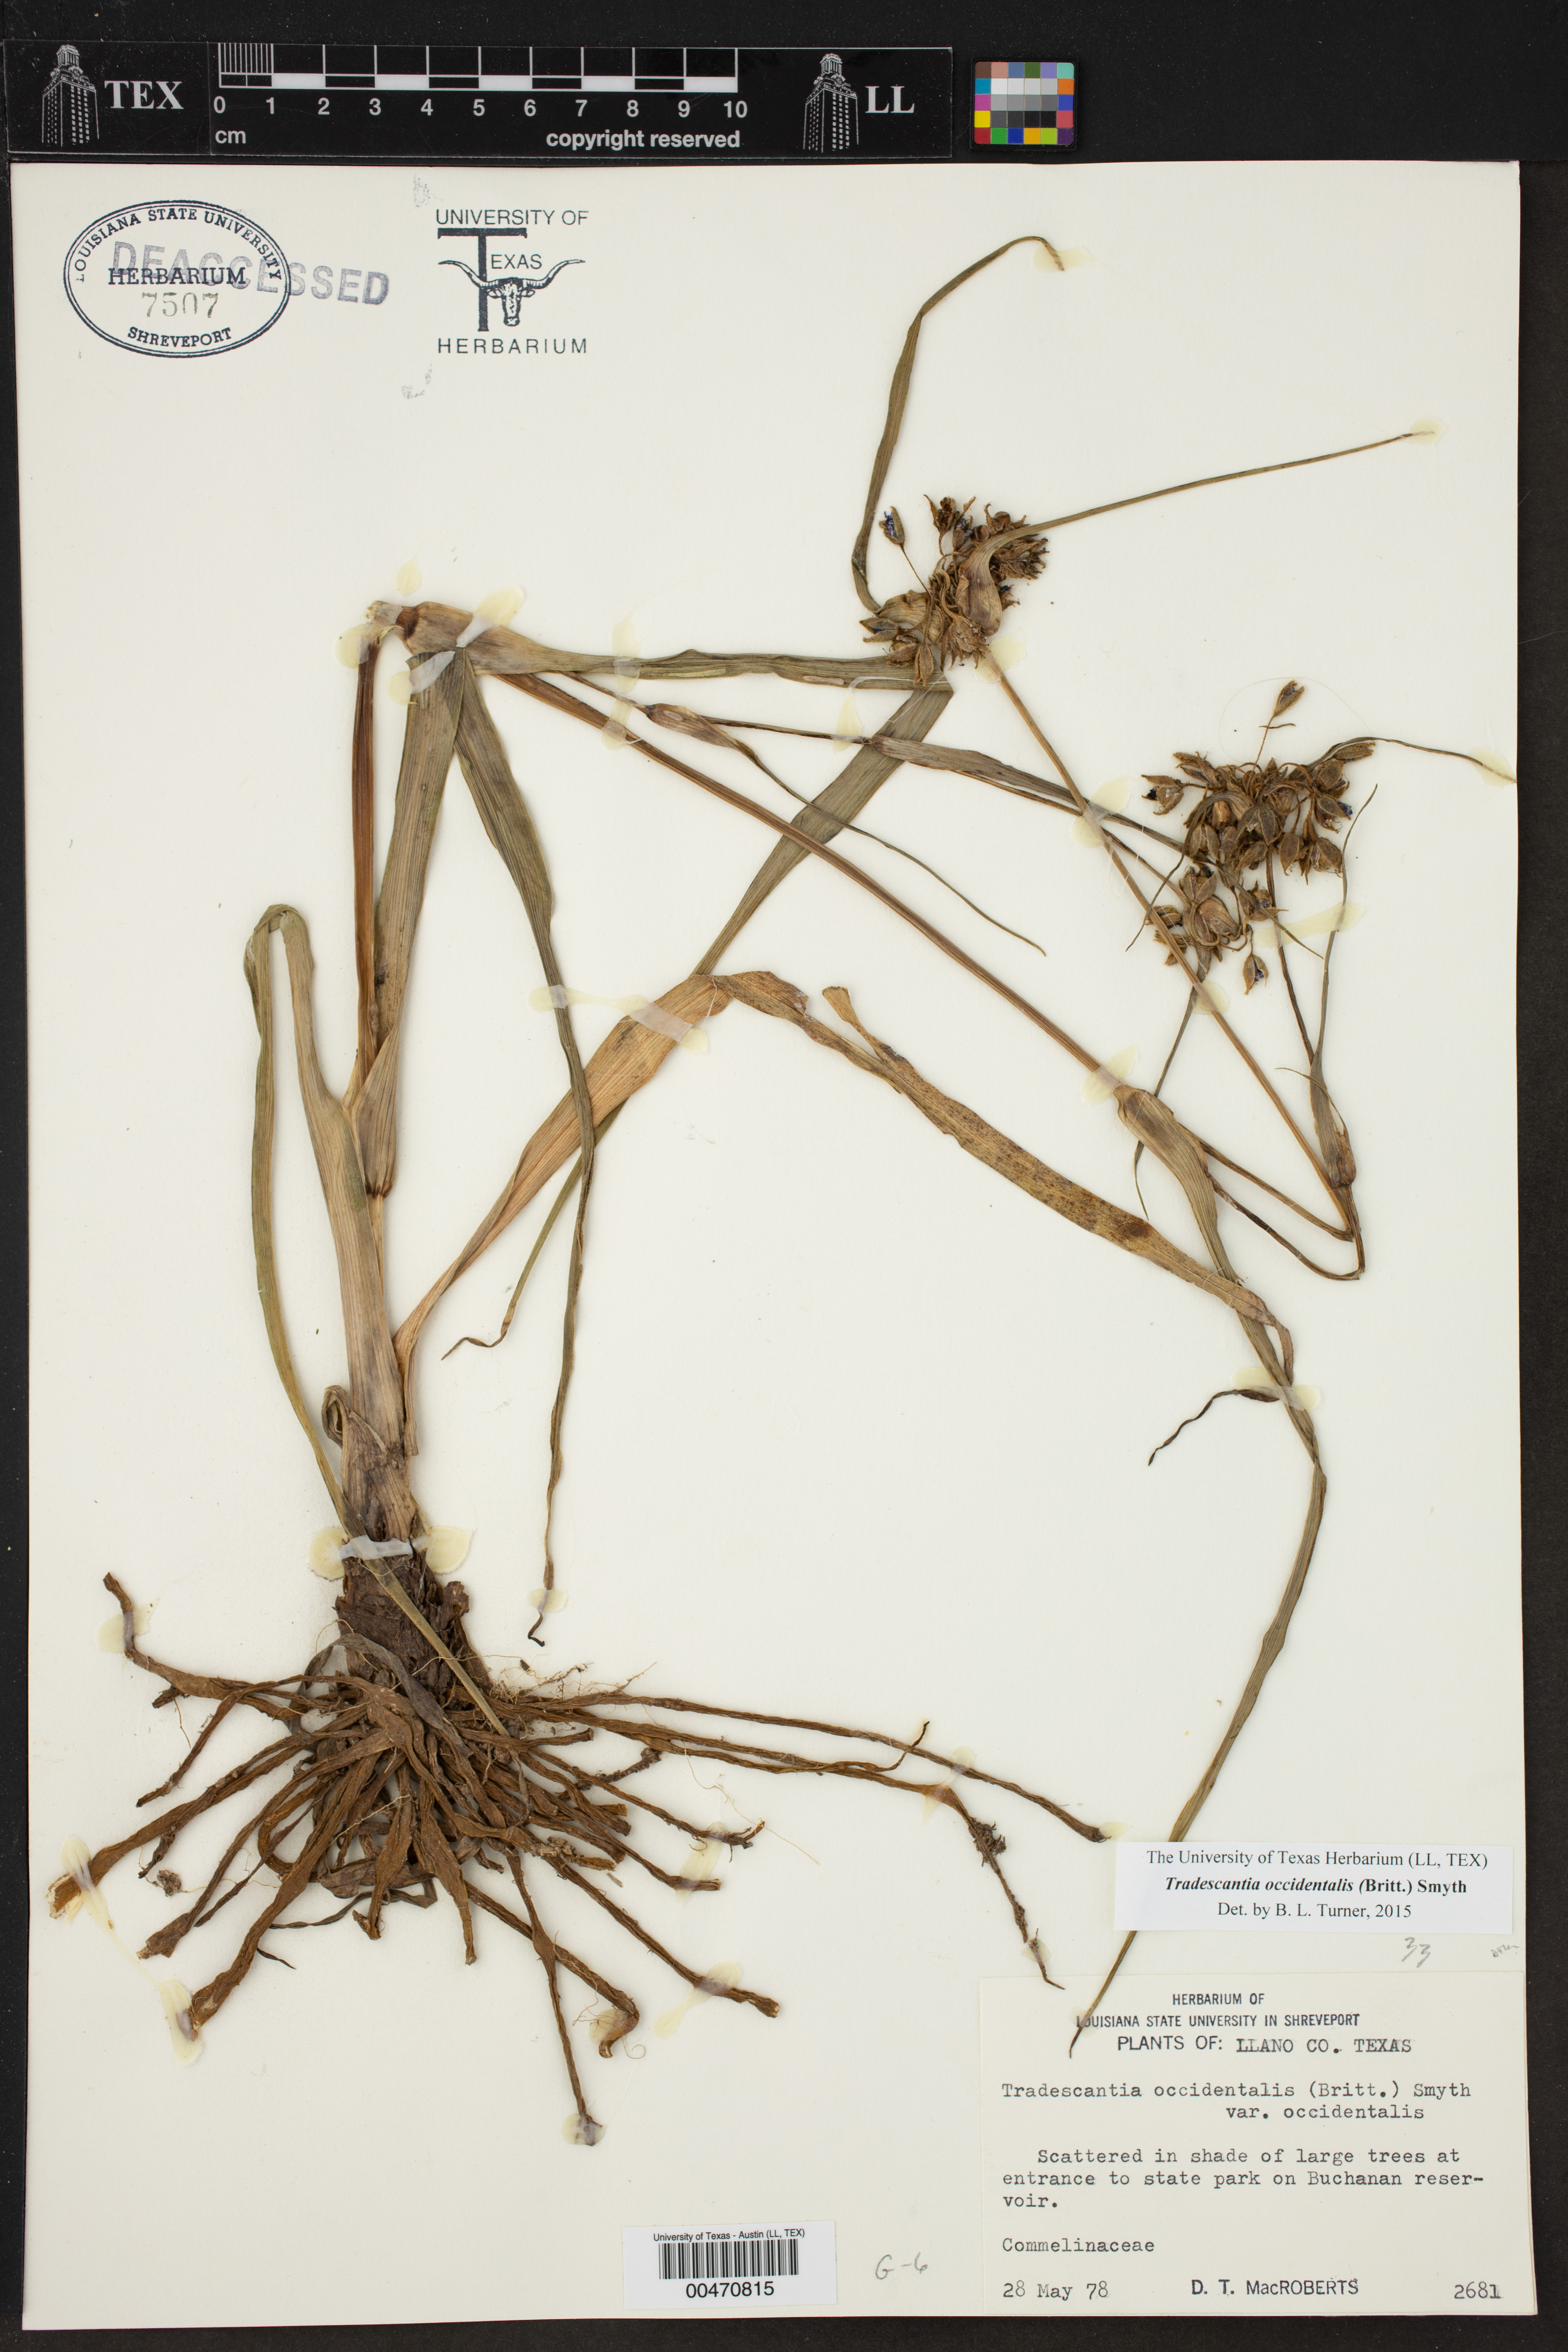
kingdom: Plantae
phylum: Tracheophyta
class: Liliopsida
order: Commelinales
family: Commelinaceae
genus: Tradescantia
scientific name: Tradescantia occidentalis
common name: Prairie spiderwort
